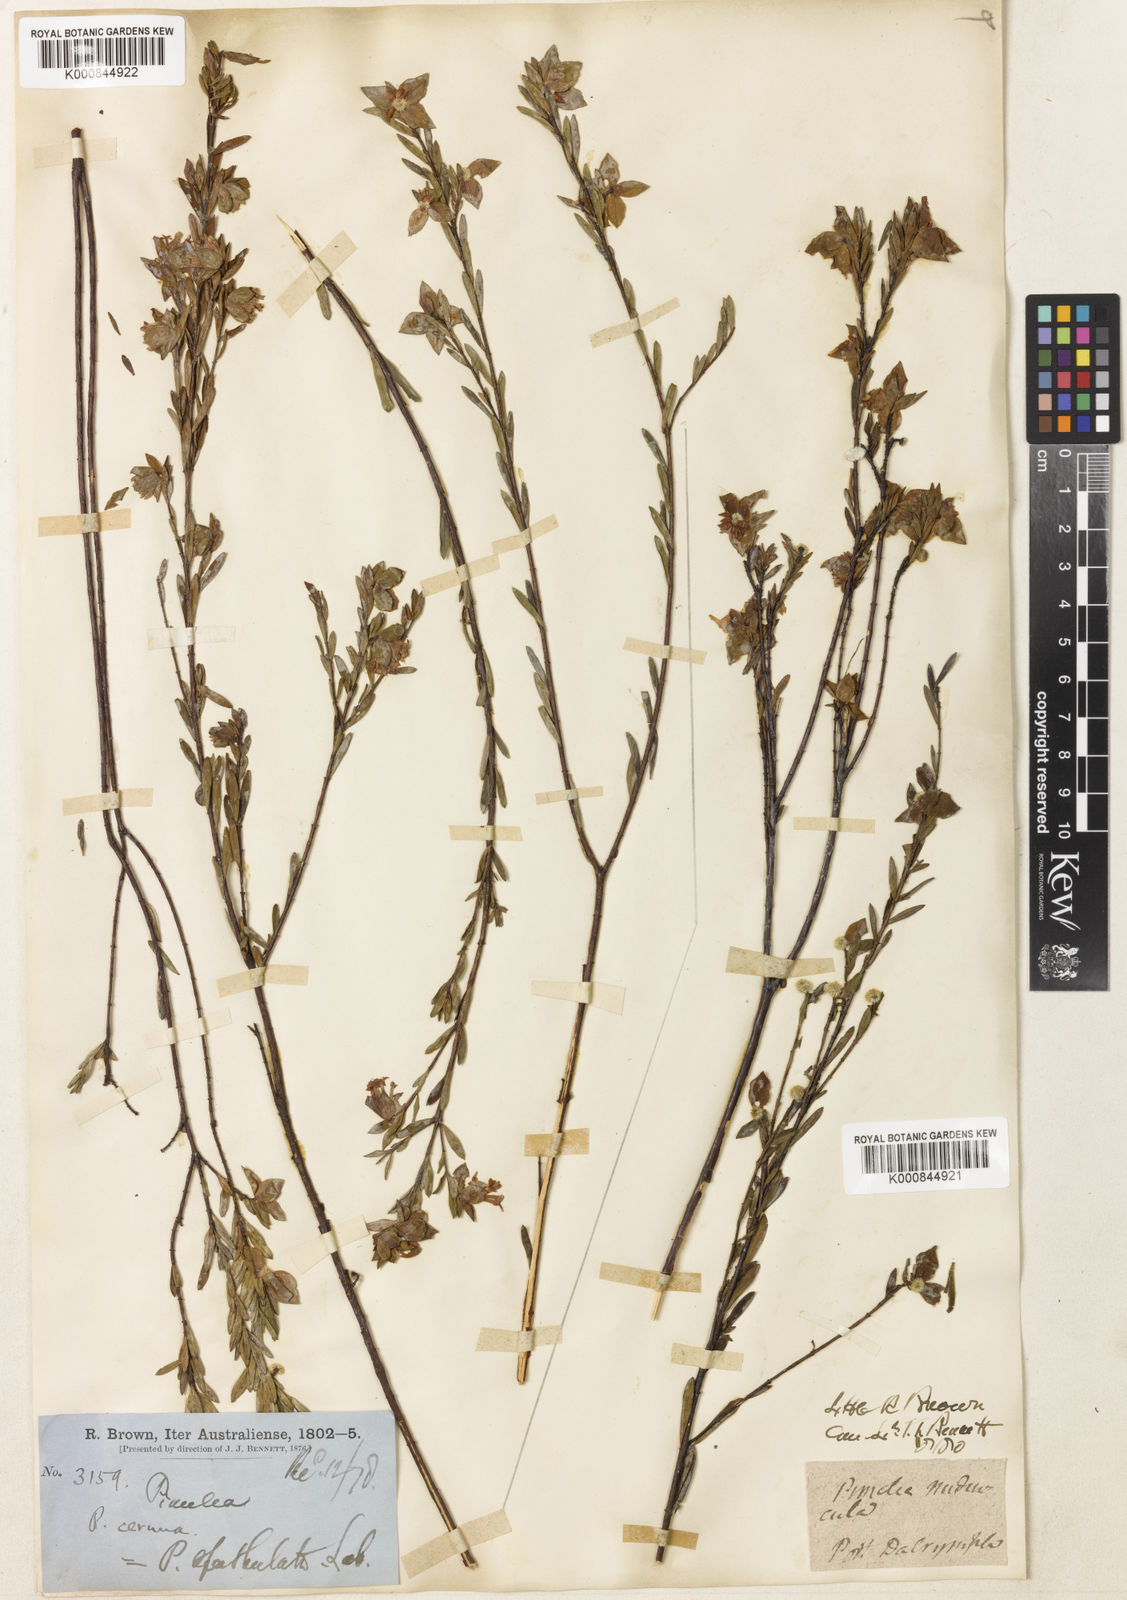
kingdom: Plantae
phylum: Tracheophyta
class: Magnoliopsida
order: Malvales
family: Thymelaeaceae
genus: Pimelea
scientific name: Pimelea linifolia
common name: Queen-of-the-bush
